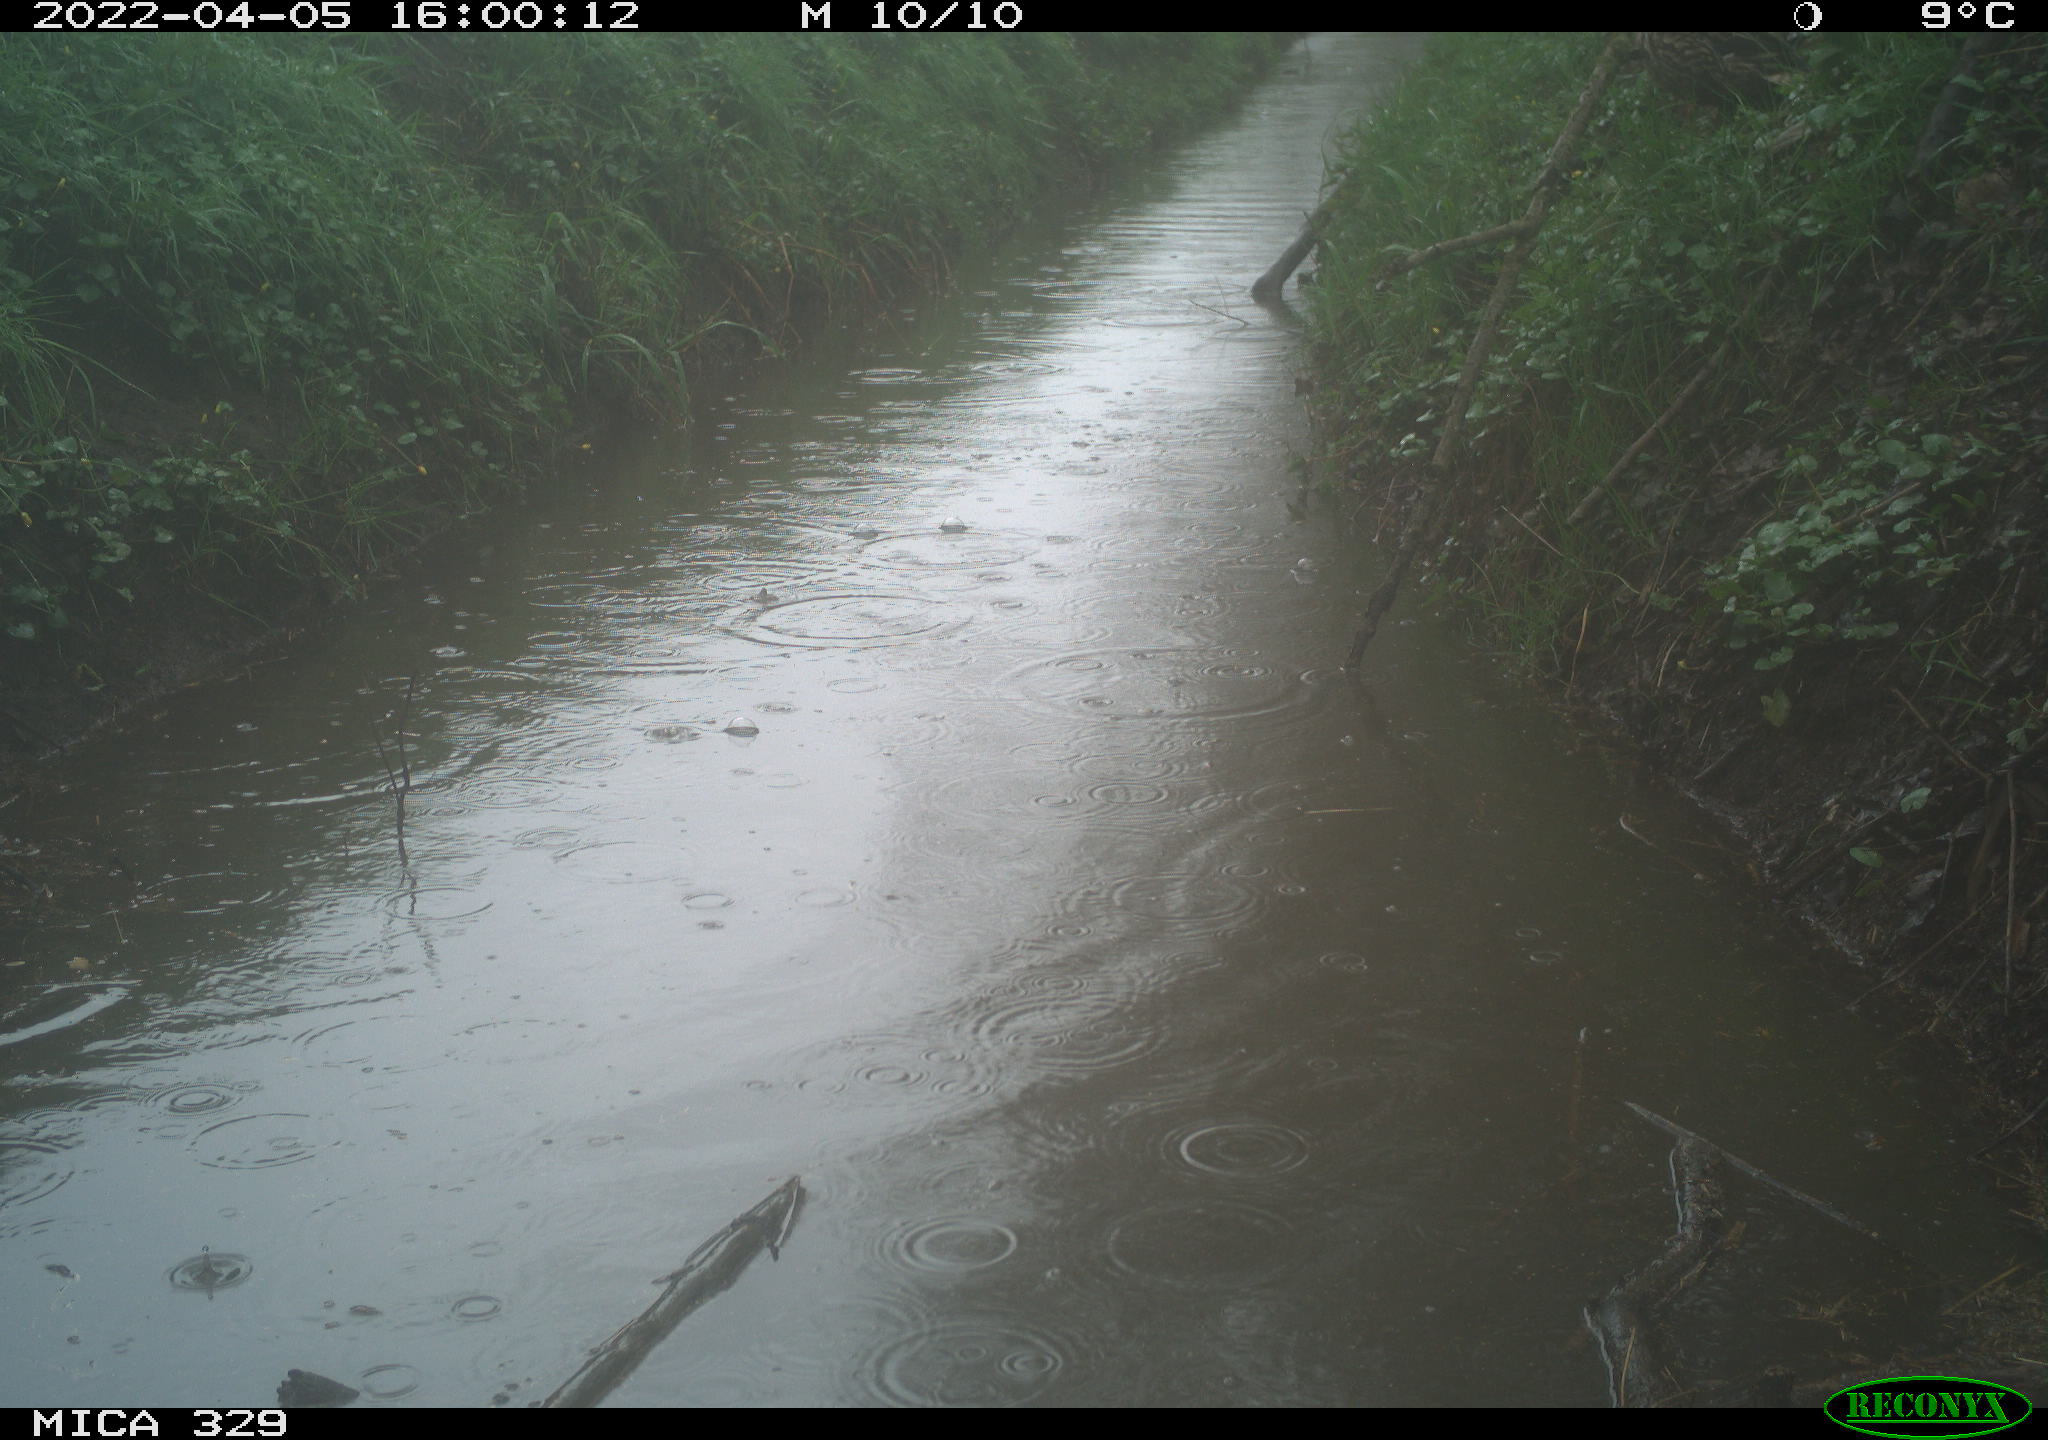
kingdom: Animalia
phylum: Chordata
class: Aves
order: Anseriformes
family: Anatidae
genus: Anas
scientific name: Anas platyrhynchos
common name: Mallard
